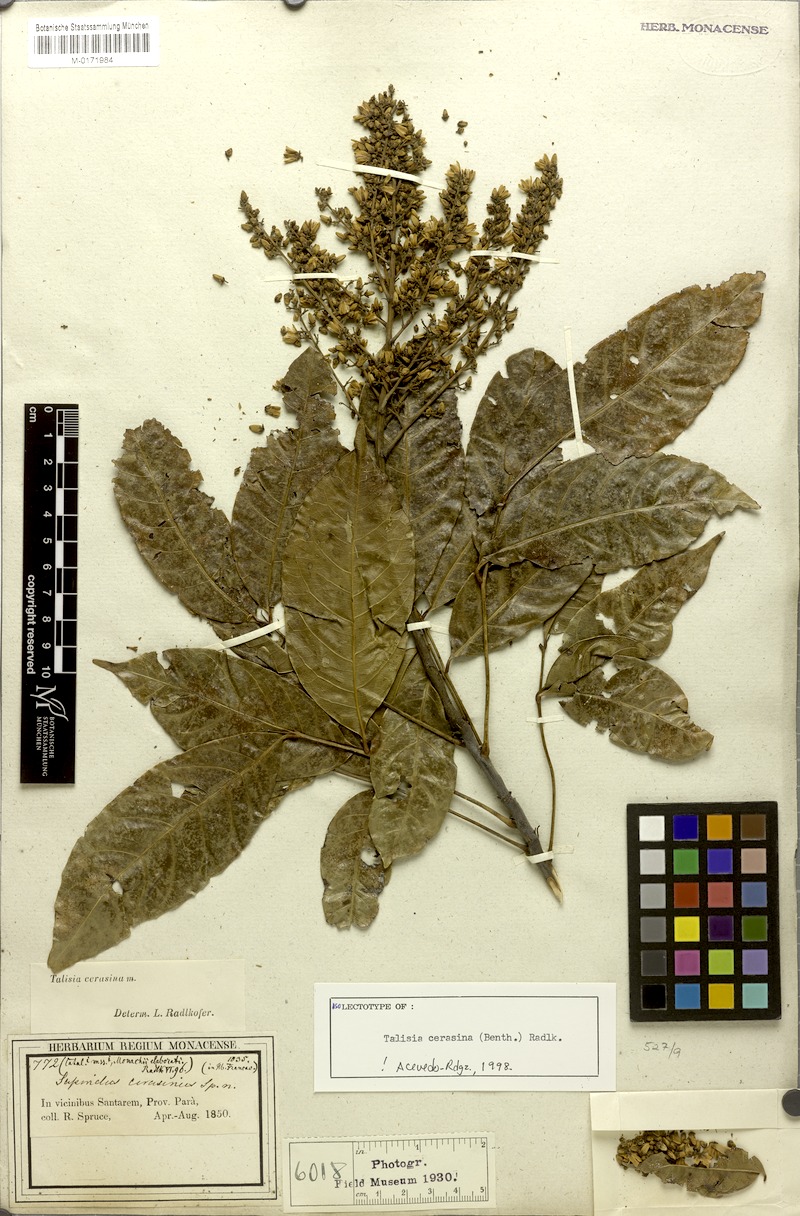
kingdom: Plantae
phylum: Tracheophyta
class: Magnoliopsida
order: Sapindales
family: Sapindaceae
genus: Talisia
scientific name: Talisia cerasina
